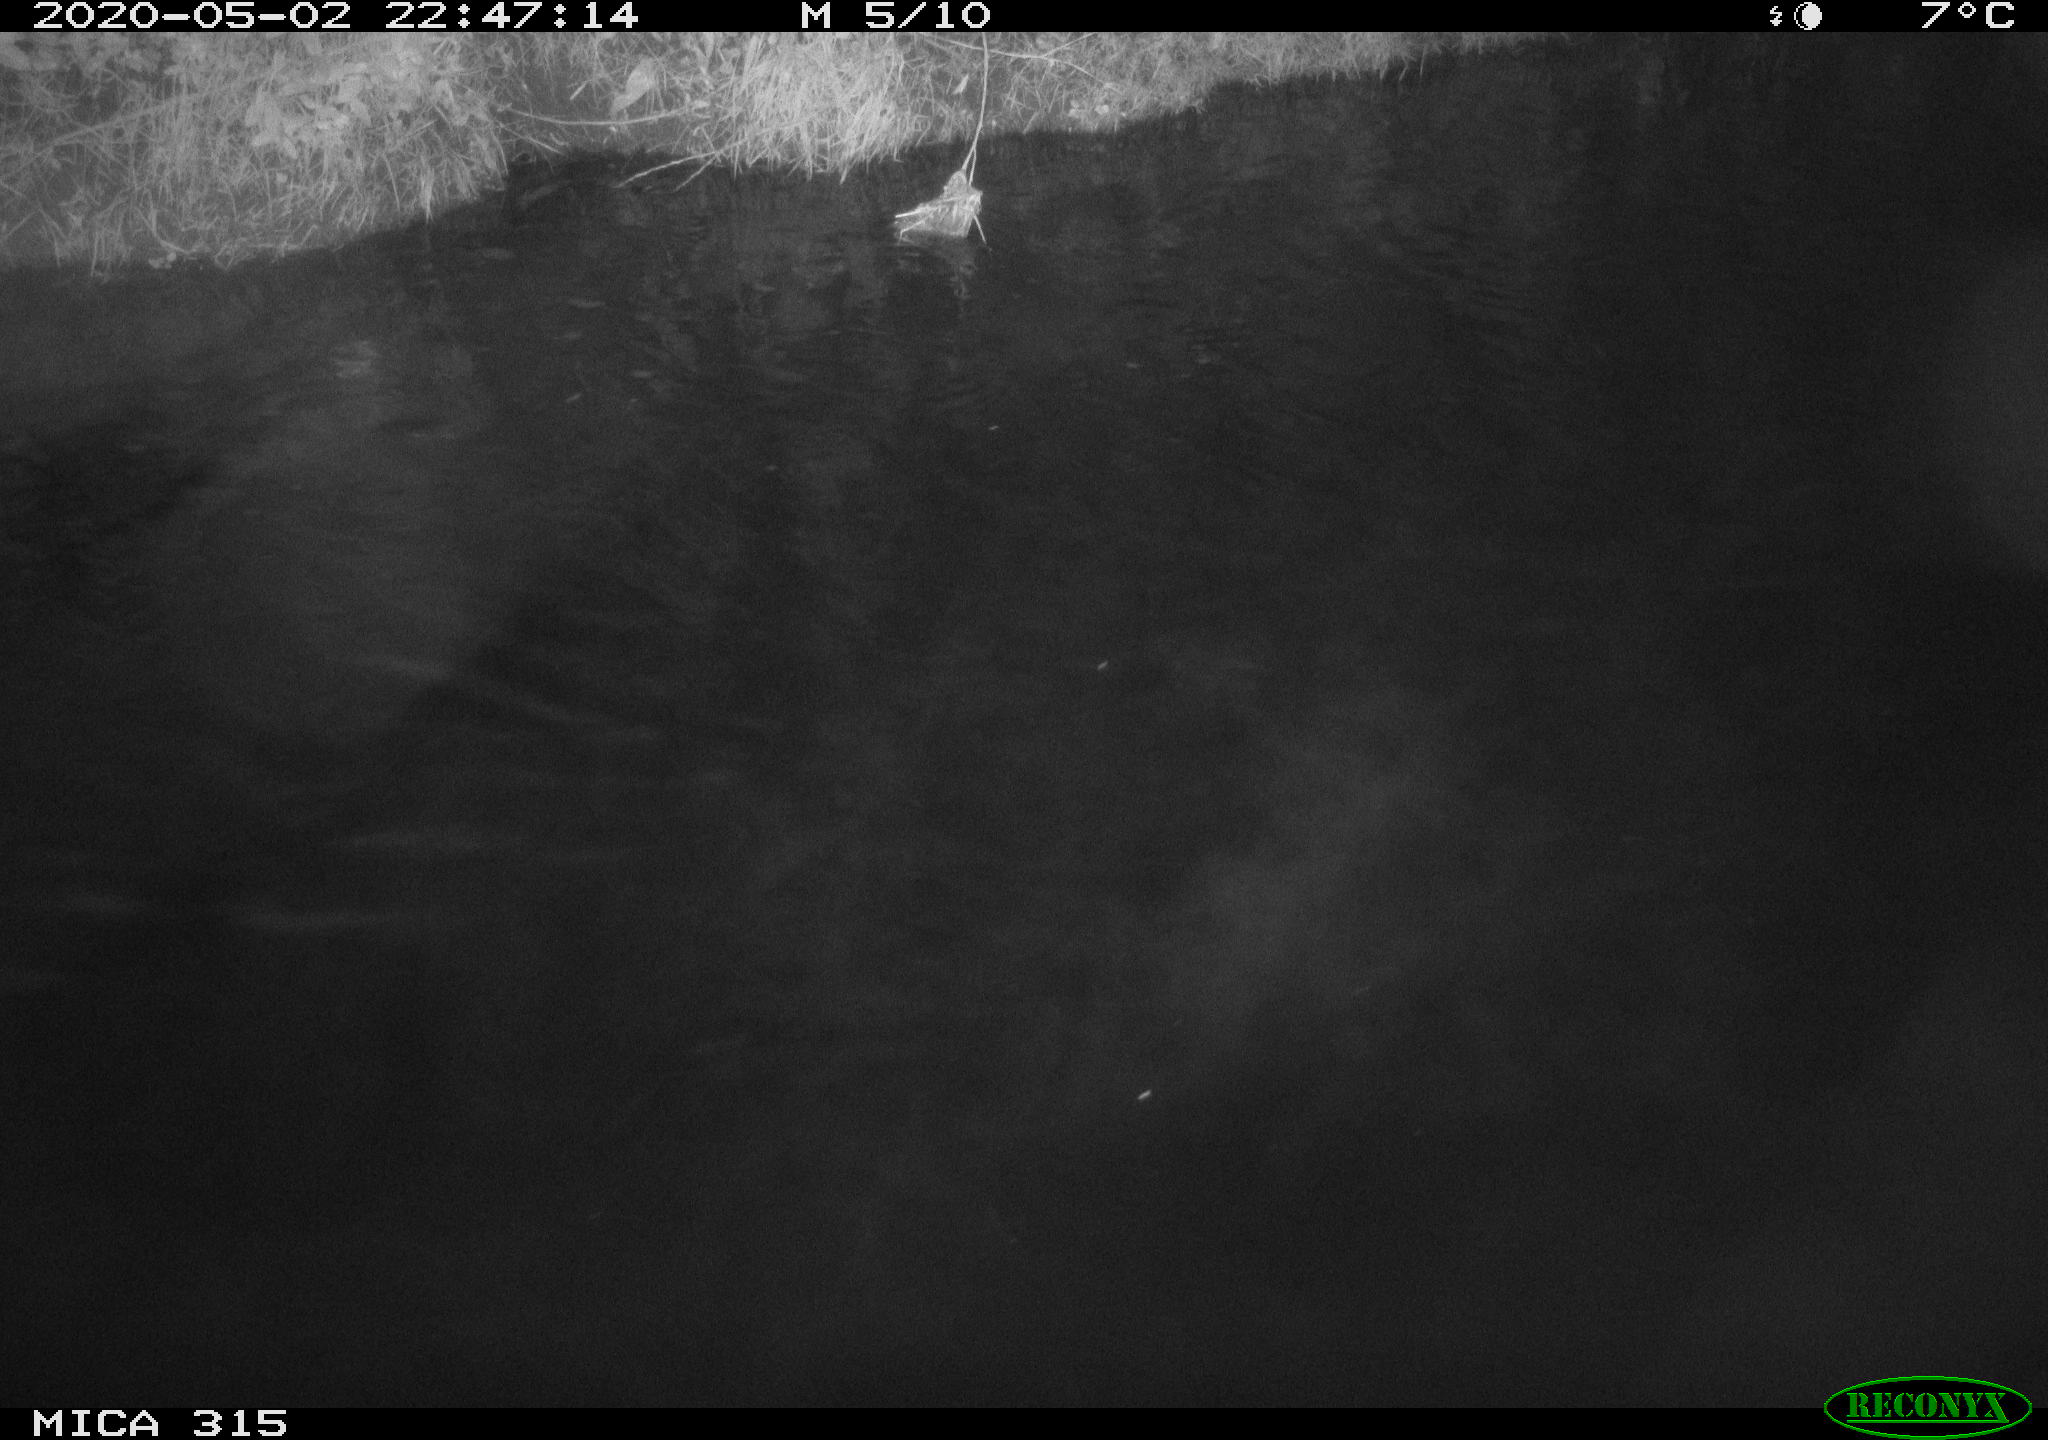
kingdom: Animalia
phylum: Chordata
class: Aves
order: Anseriformes
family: Anatidae
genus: Anas
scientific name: Anas platyrhynchos
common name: Mallard
